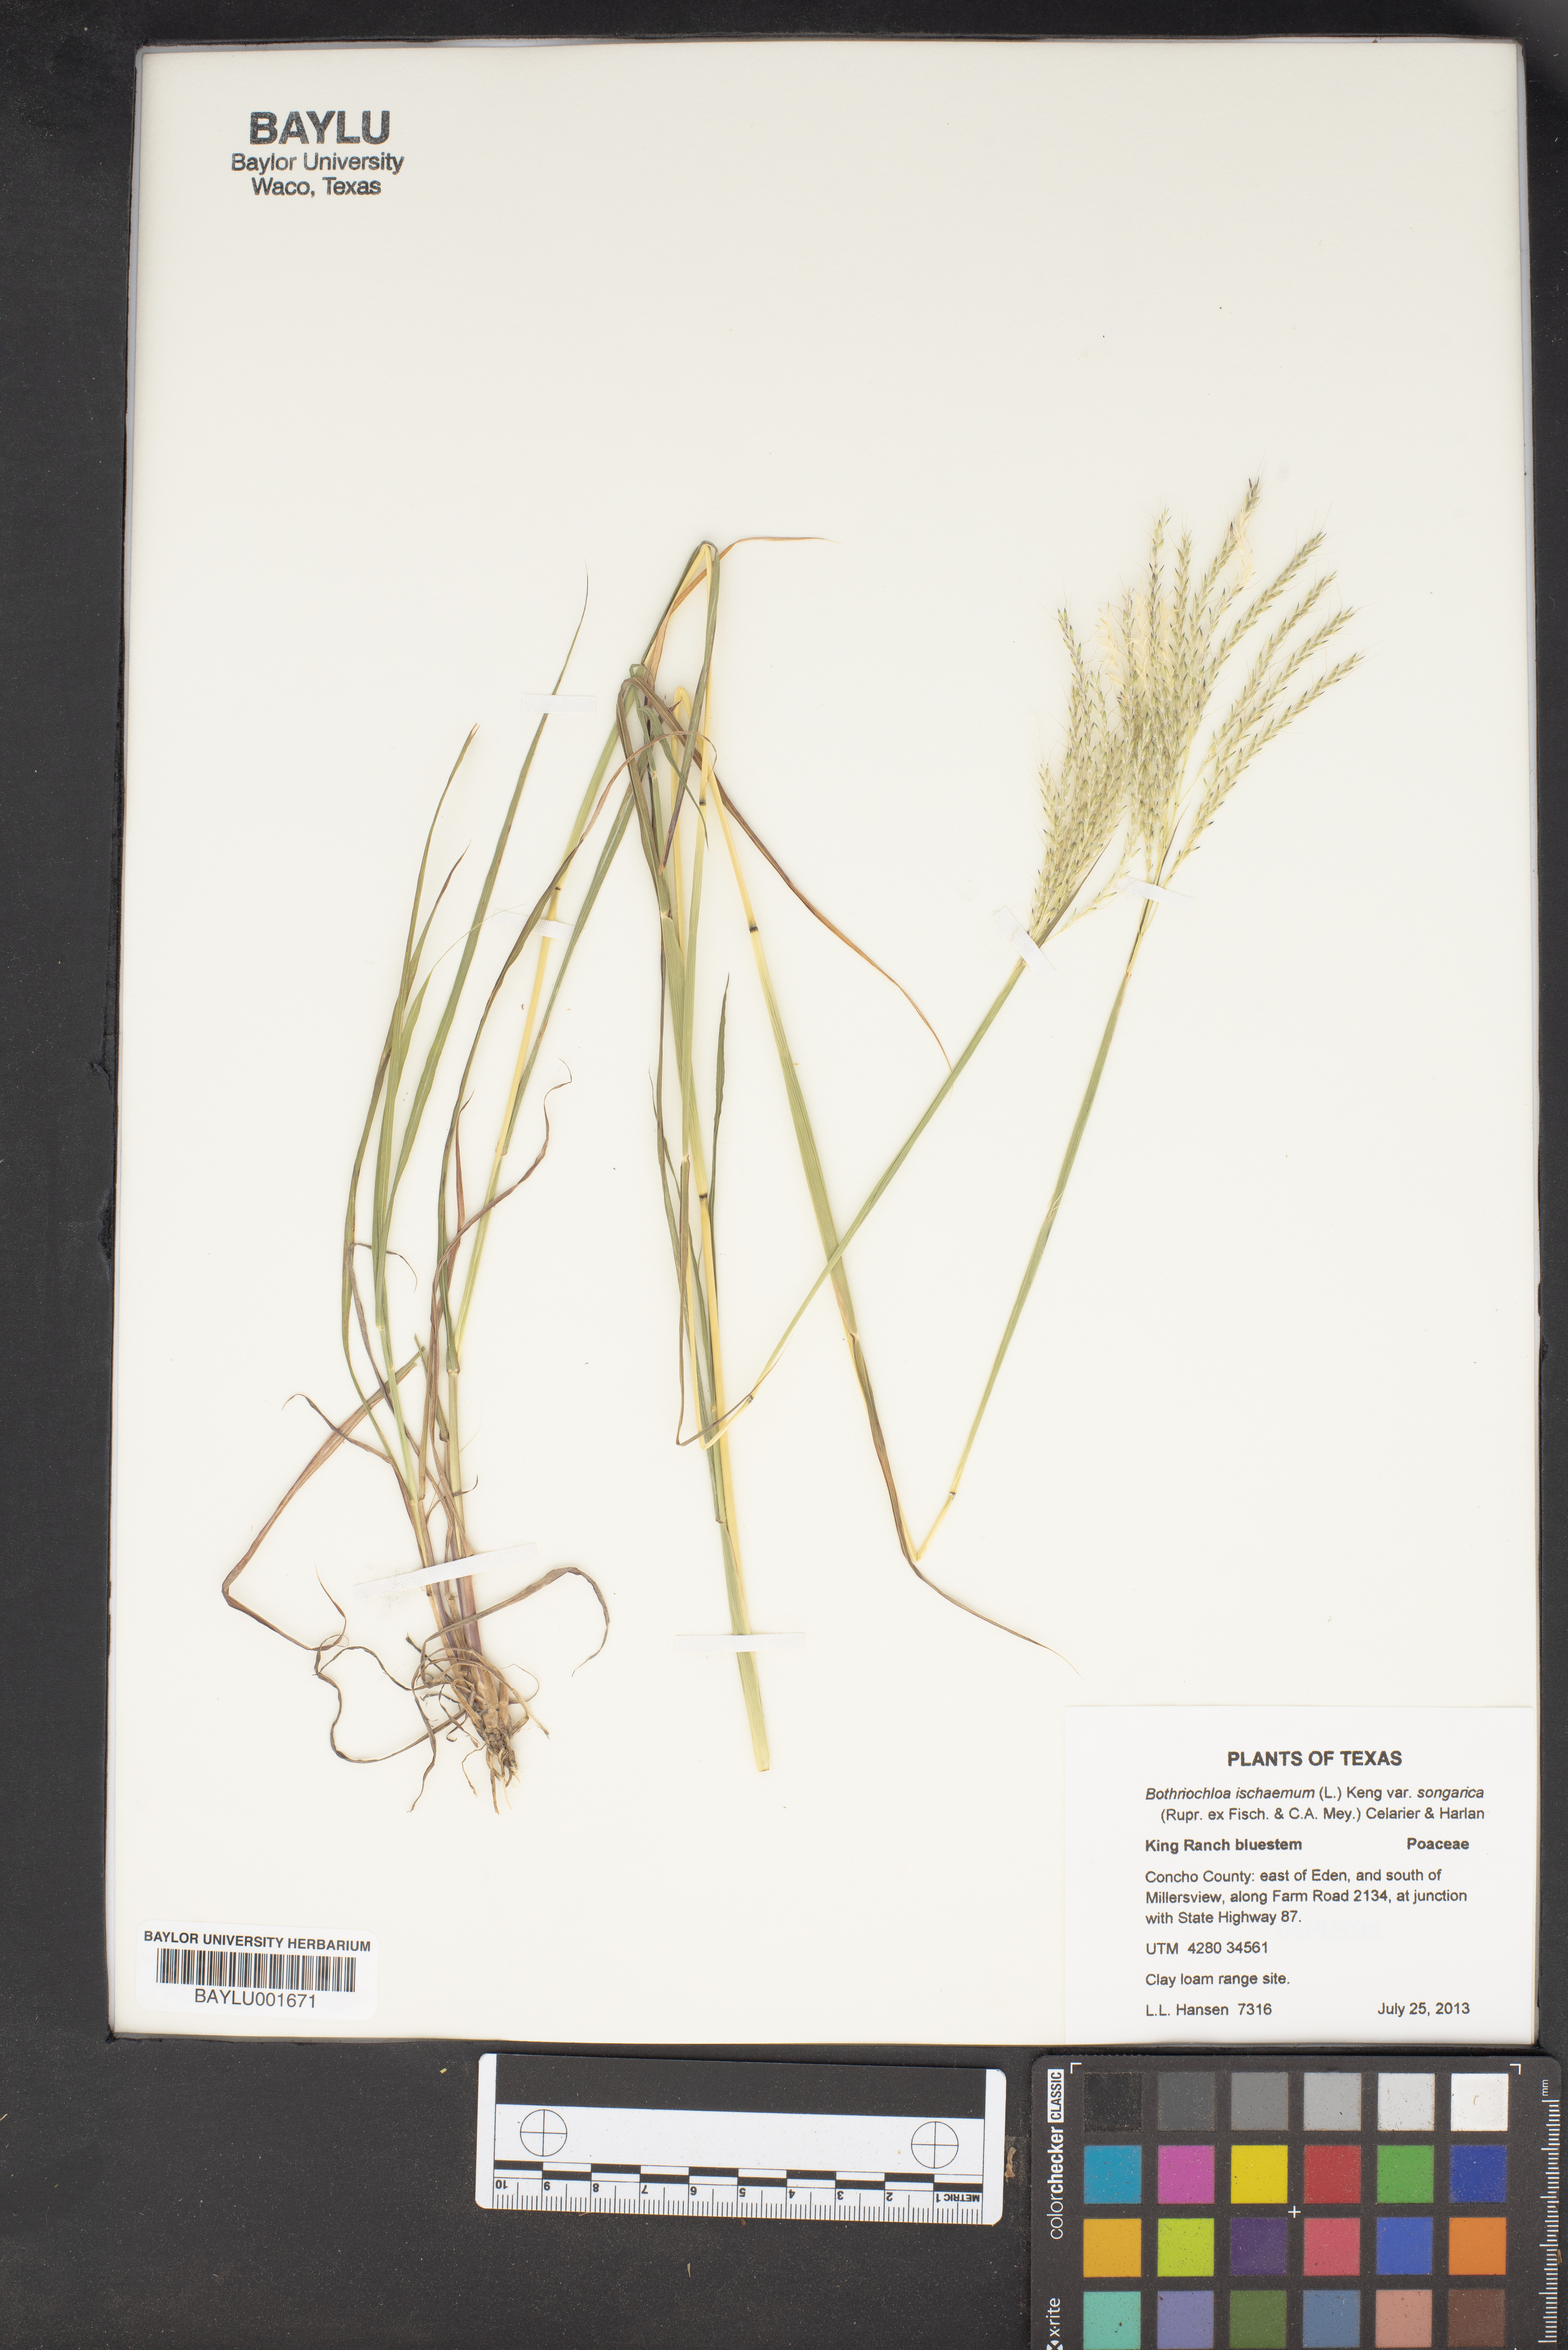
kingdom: Plantae
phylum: Tracheophyta
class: Liliopsida
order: Poales
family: Poaceae
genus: Bothriochloa
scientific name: Bothriochloa ischaemum
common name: Yellow bluestem
